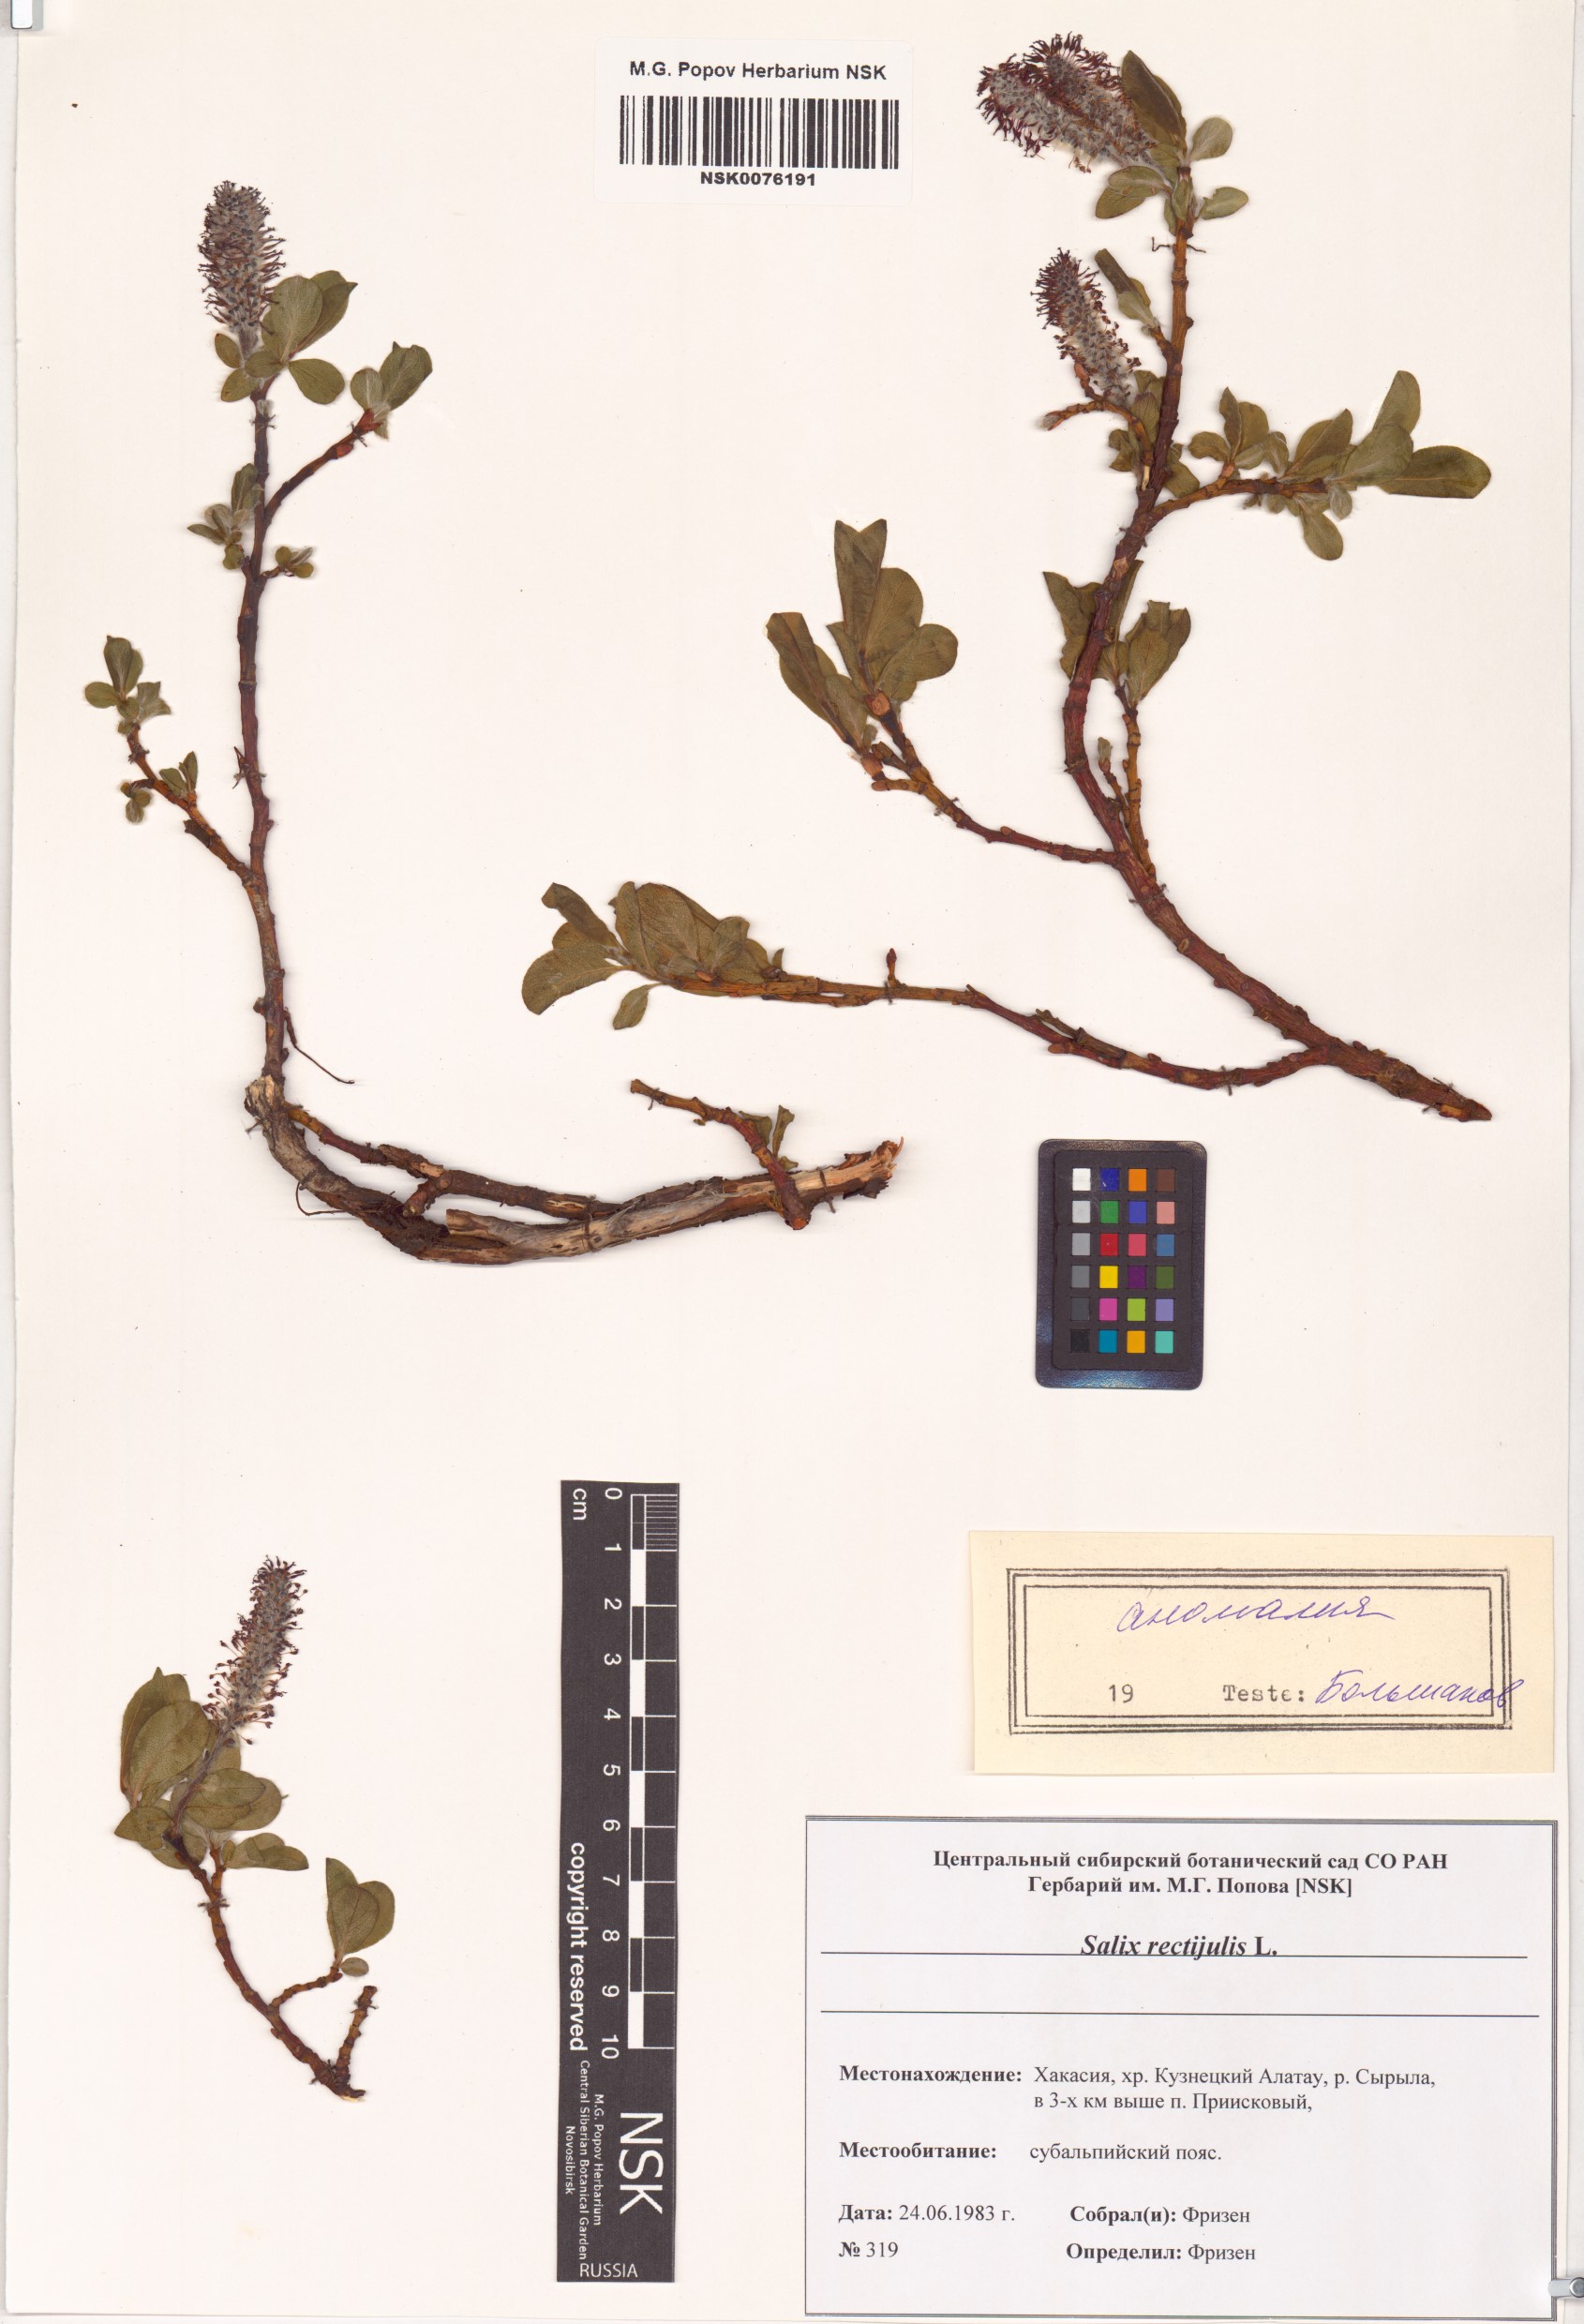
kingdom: Plantae
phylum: Tracheophyta
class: Magnoliopsida
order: Malpighiales
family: Salicaceae
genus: Salix
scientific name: Salix rectijulis
